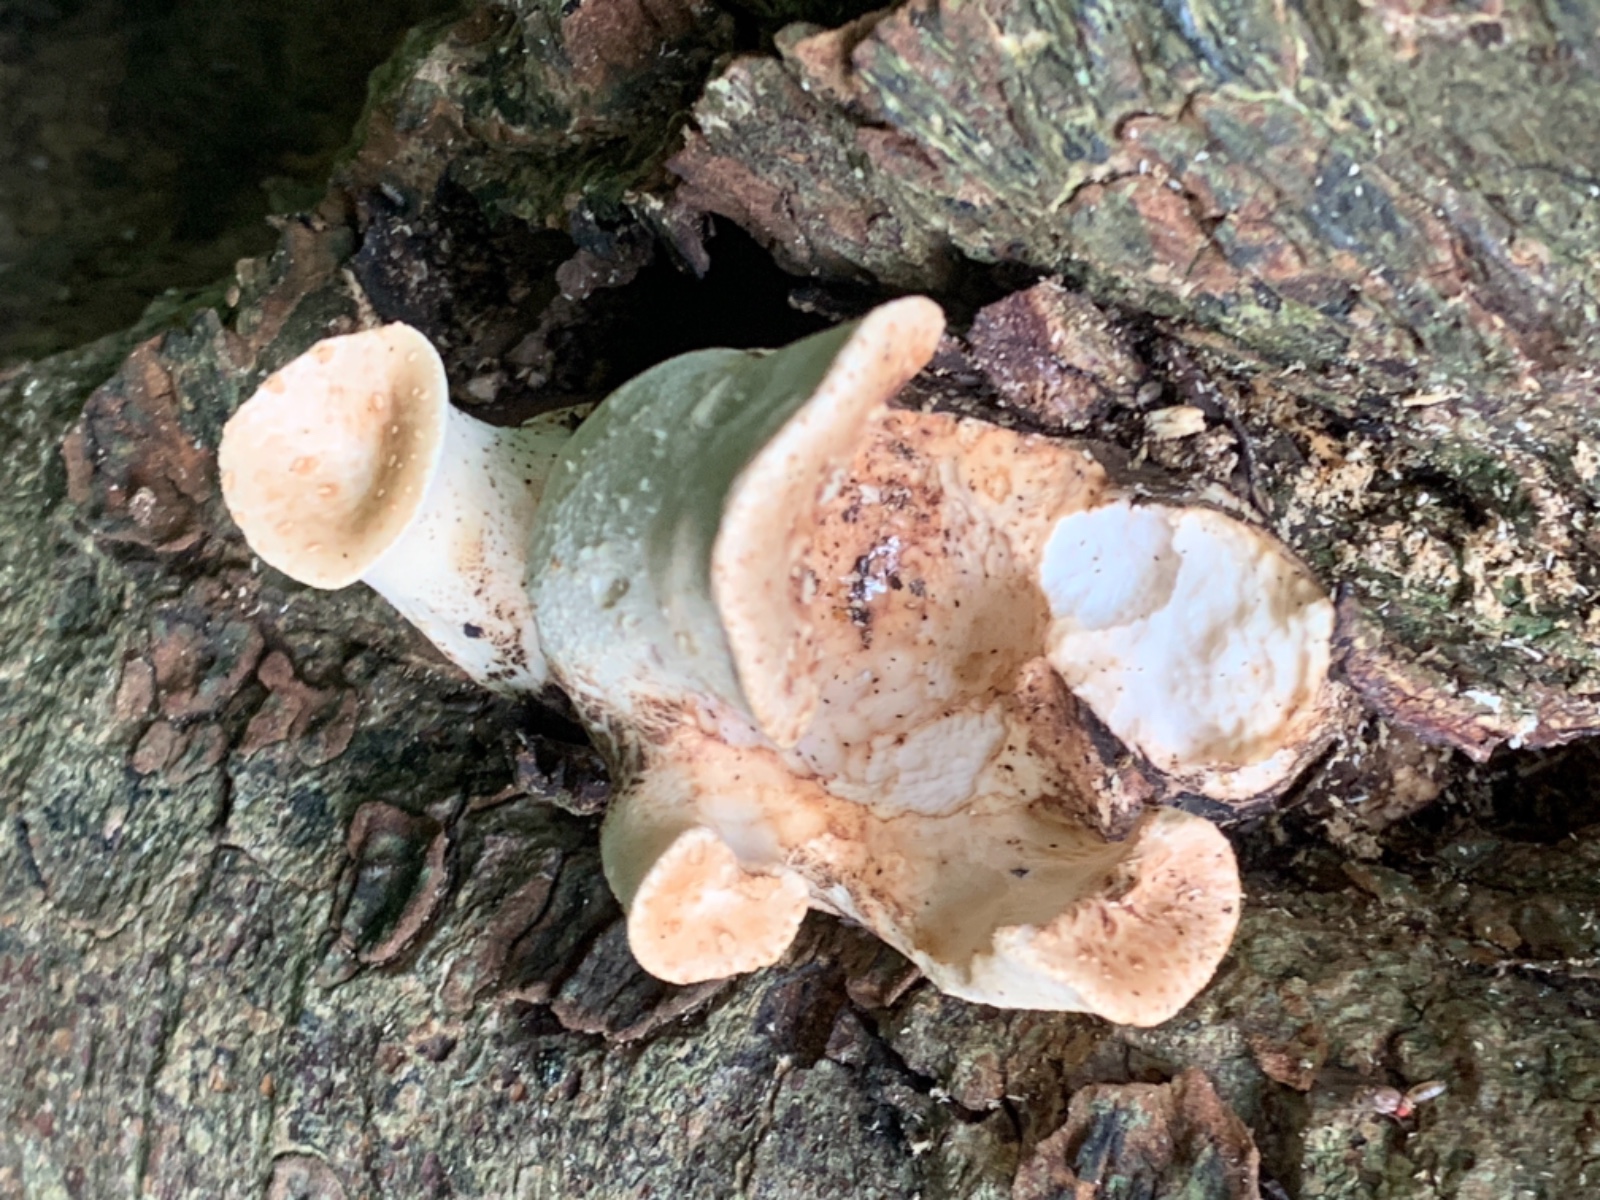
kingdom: Fungi
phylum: Basidiomycota
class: Agaricomycetes
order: Polyporales
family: Polyporaceae
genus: Cerioporus
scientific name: Cerioporus squamosus
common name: skællet stilkporesvamp
